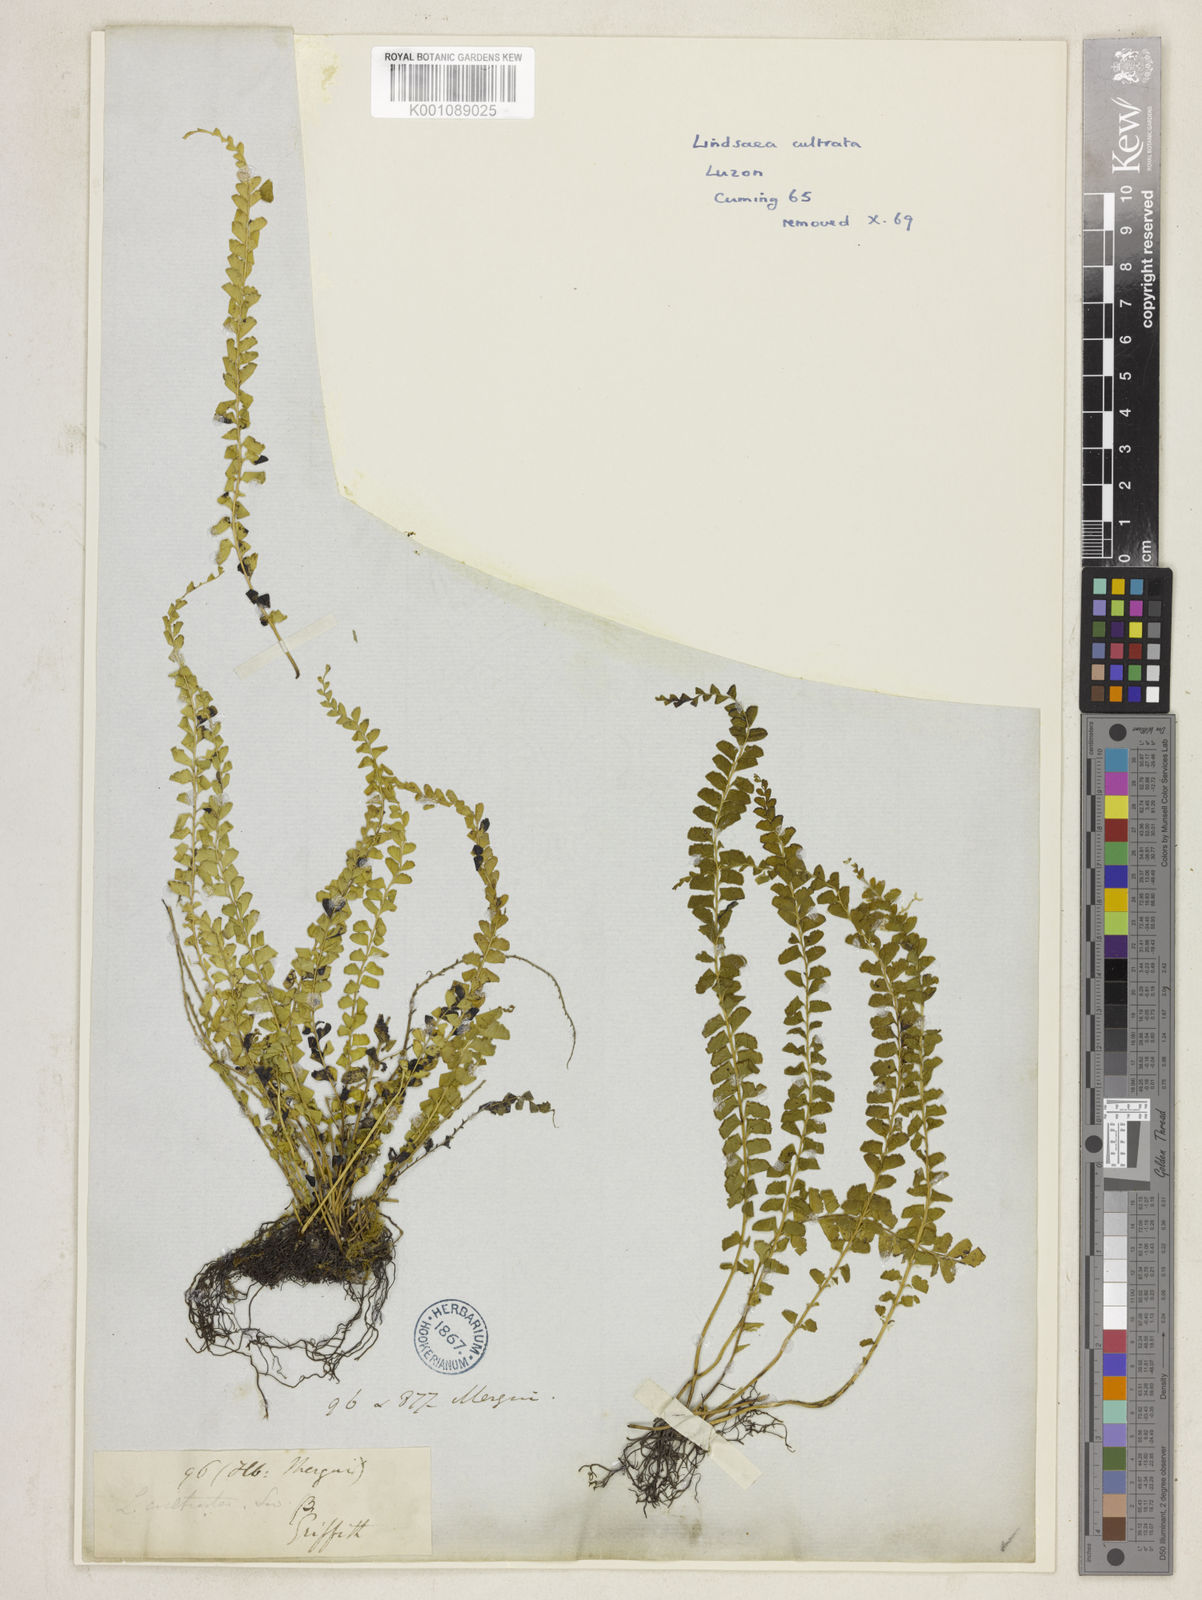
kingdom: Plantae
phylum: Tracheophyta
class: Polypodiopsida
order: Polypodiales
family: Lindsaeaceae
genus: Lindsaea
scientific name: Lindsaea lucida
